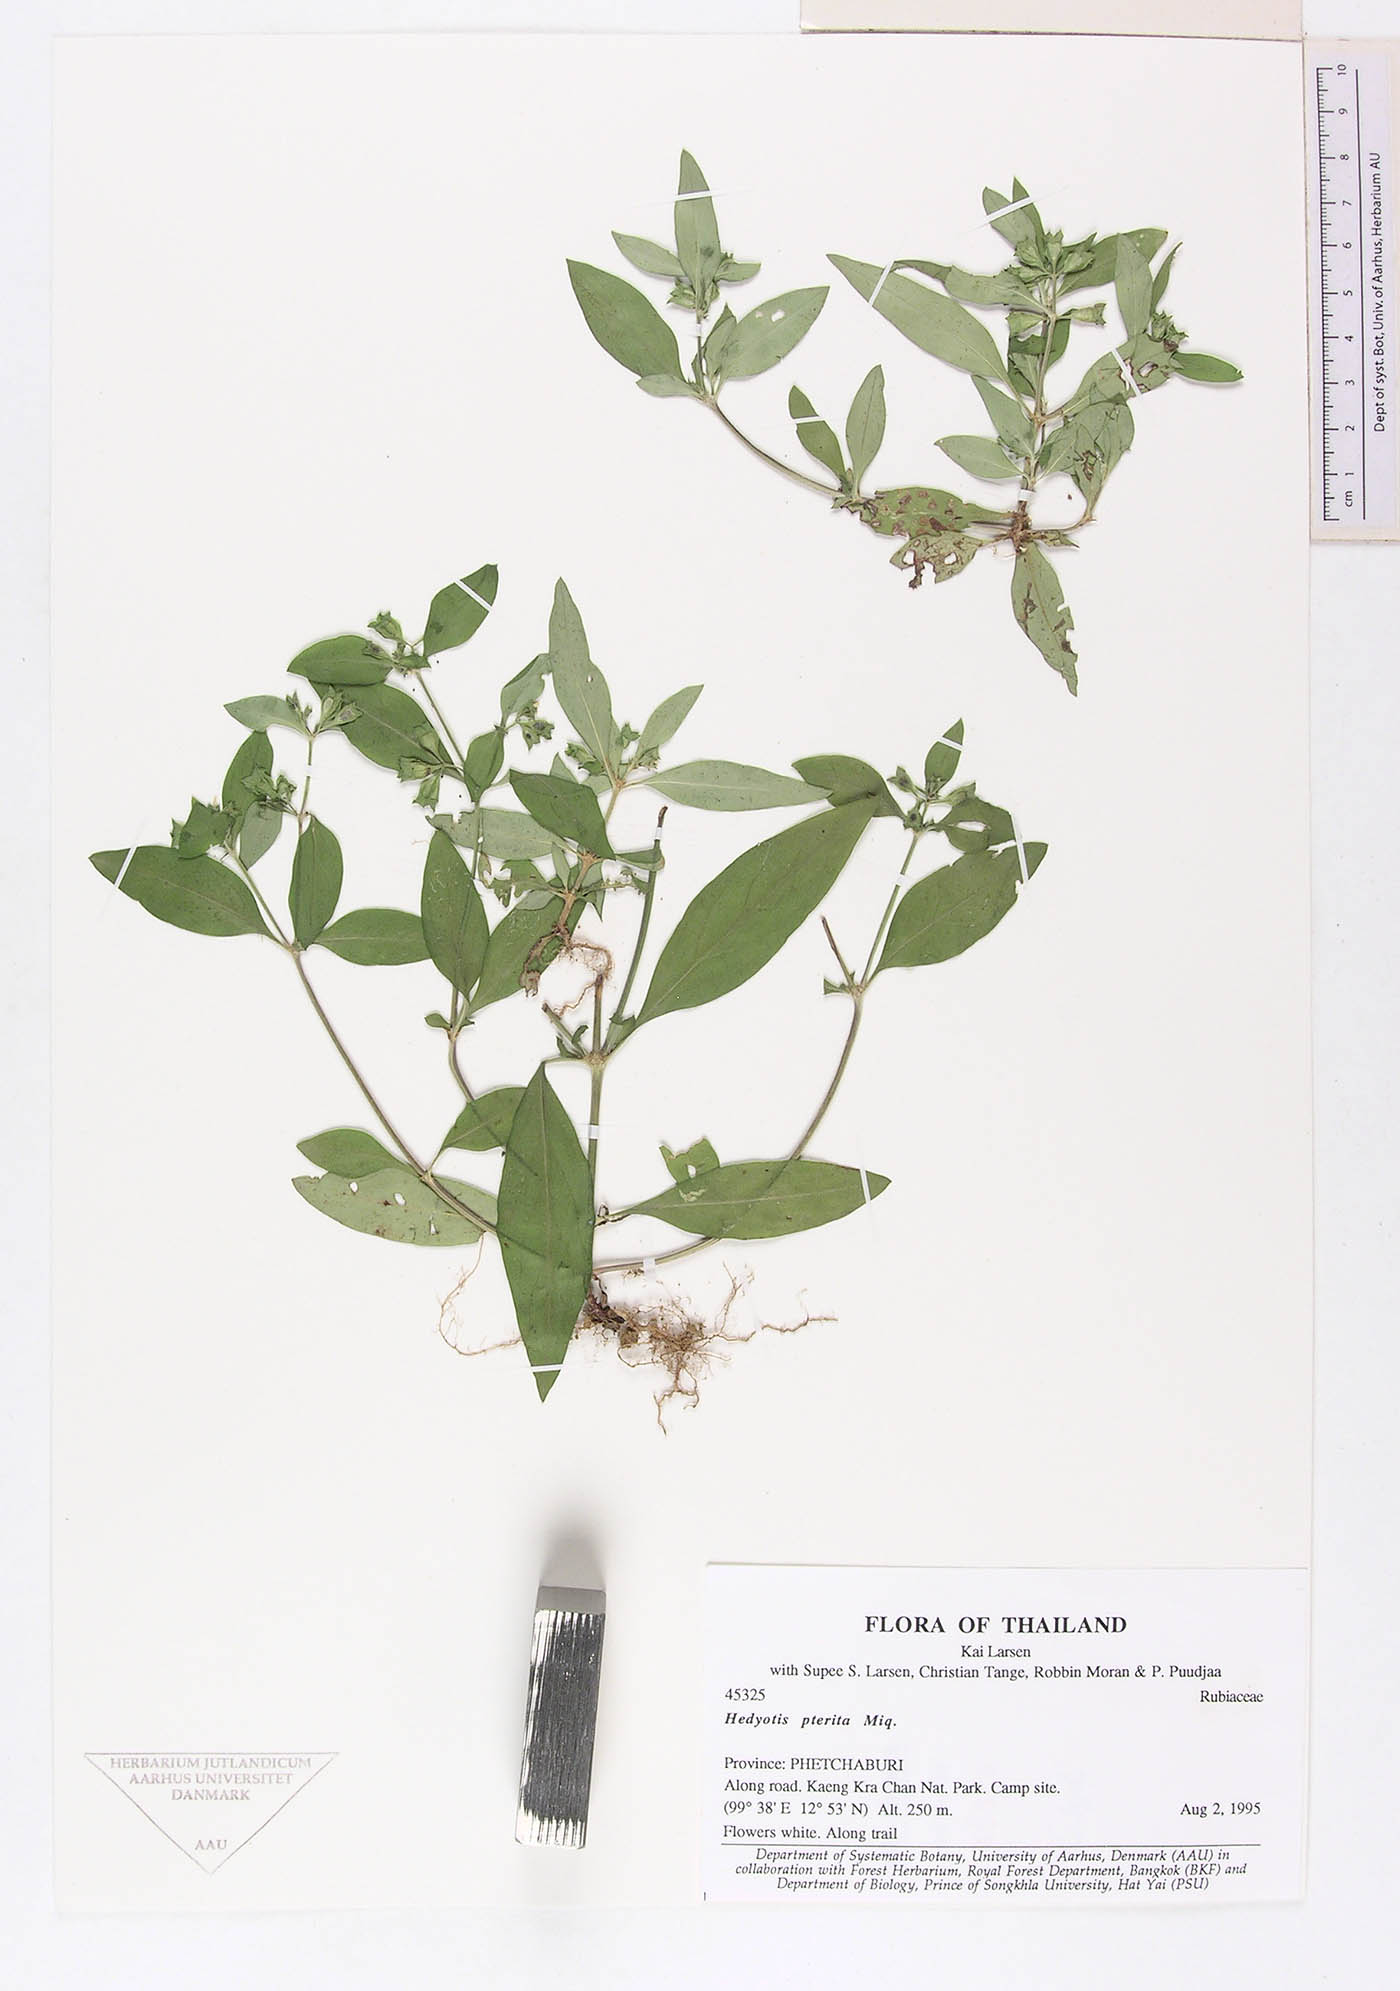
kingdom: Plantae
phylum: Tracheophyta
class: Magnoliopsida
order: Gentianales
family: Rubiaceae
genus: Leptopetalum
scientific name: Leptopetalum pteritum
